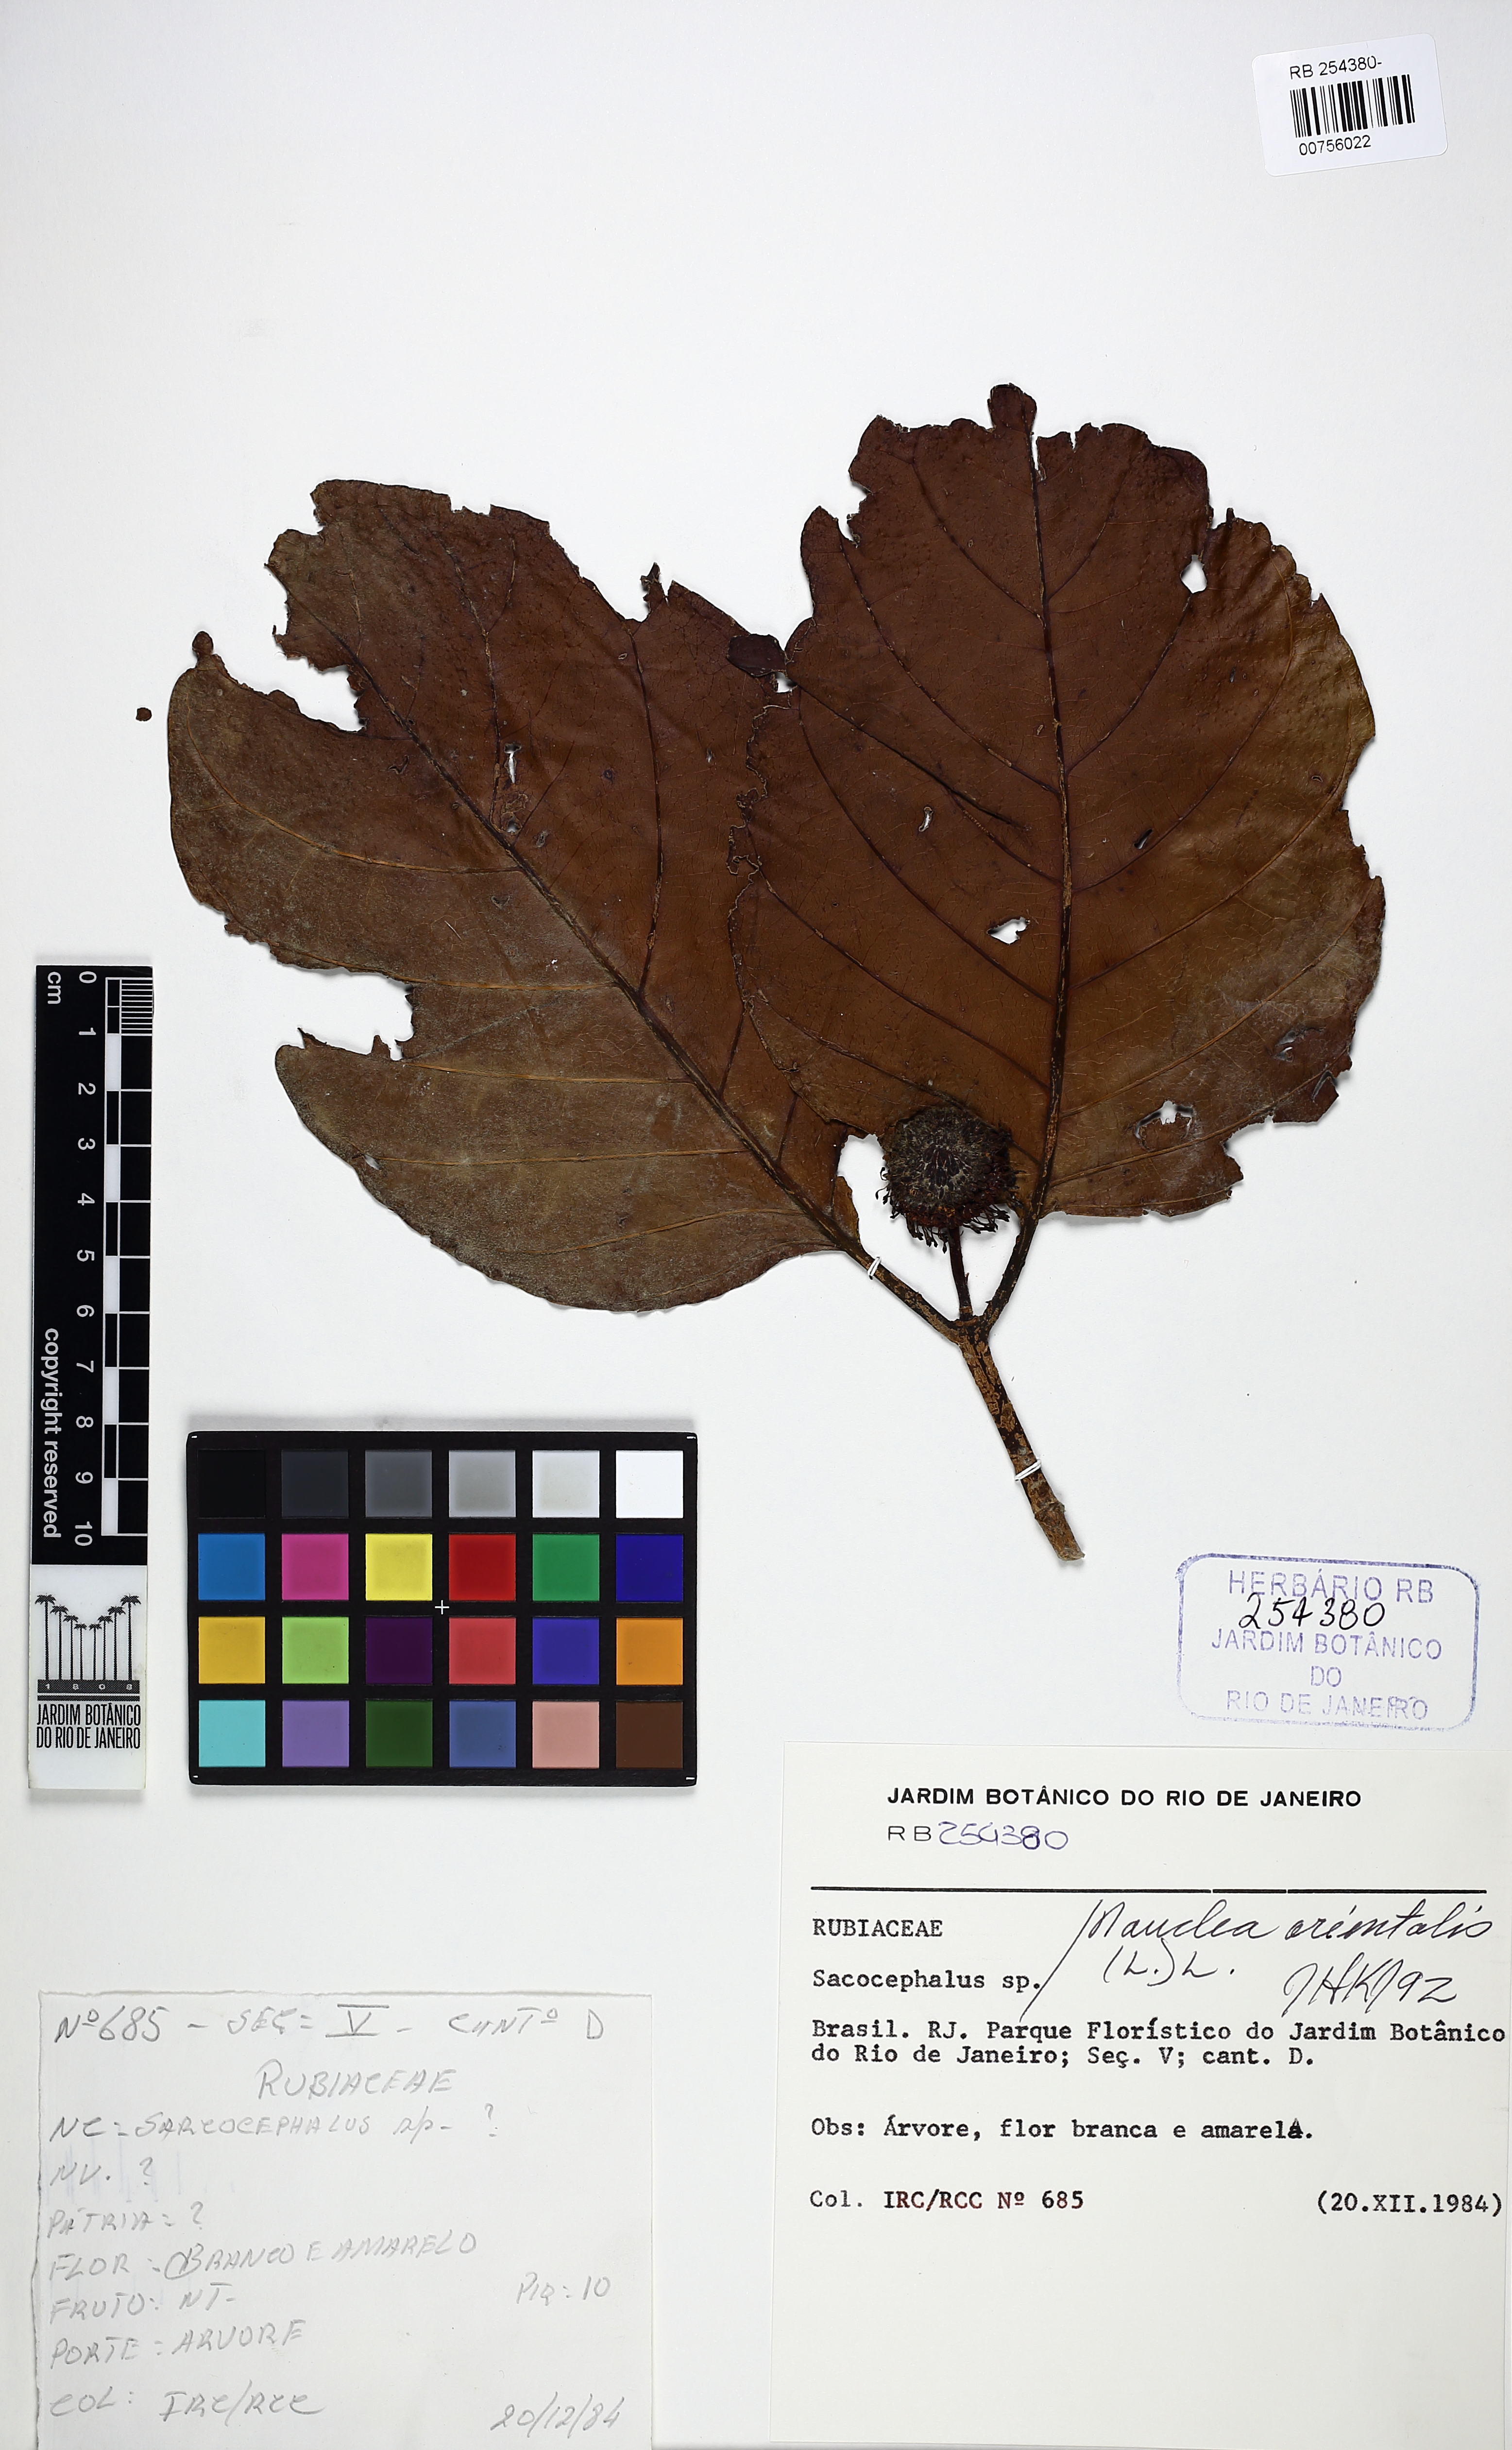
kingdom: Plantae
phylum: Tracheophyta
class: Magnoliopsida
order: Gentianales
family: Rubiaceae
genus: Nauclea
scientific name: Nauclea orientalis
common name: Leichhardt-pine
